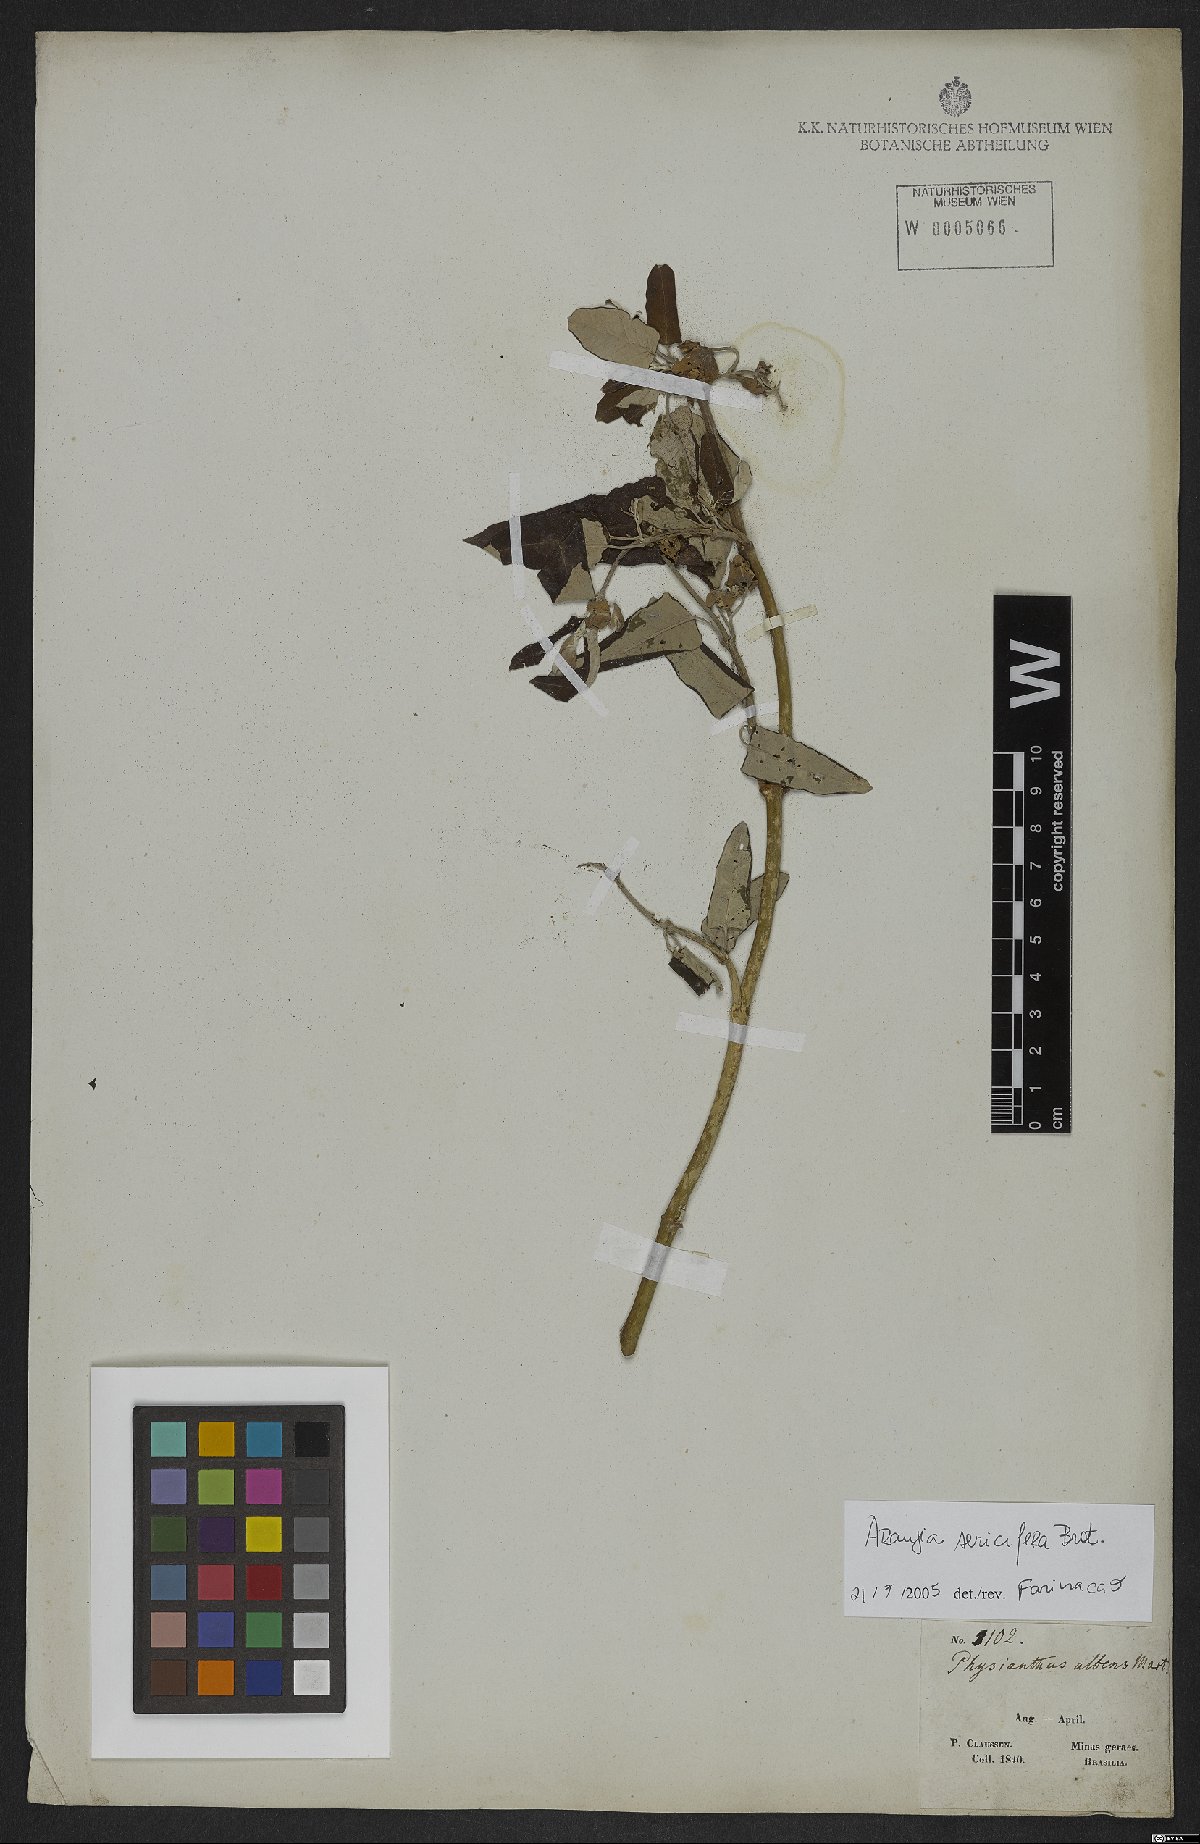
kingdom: Plantae
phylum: Tracheophyta
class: Magnoliopsida
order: Gentianales
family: Apocynaceae
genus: Araujia
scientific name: Araujia sericifera
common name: White bladderflower
